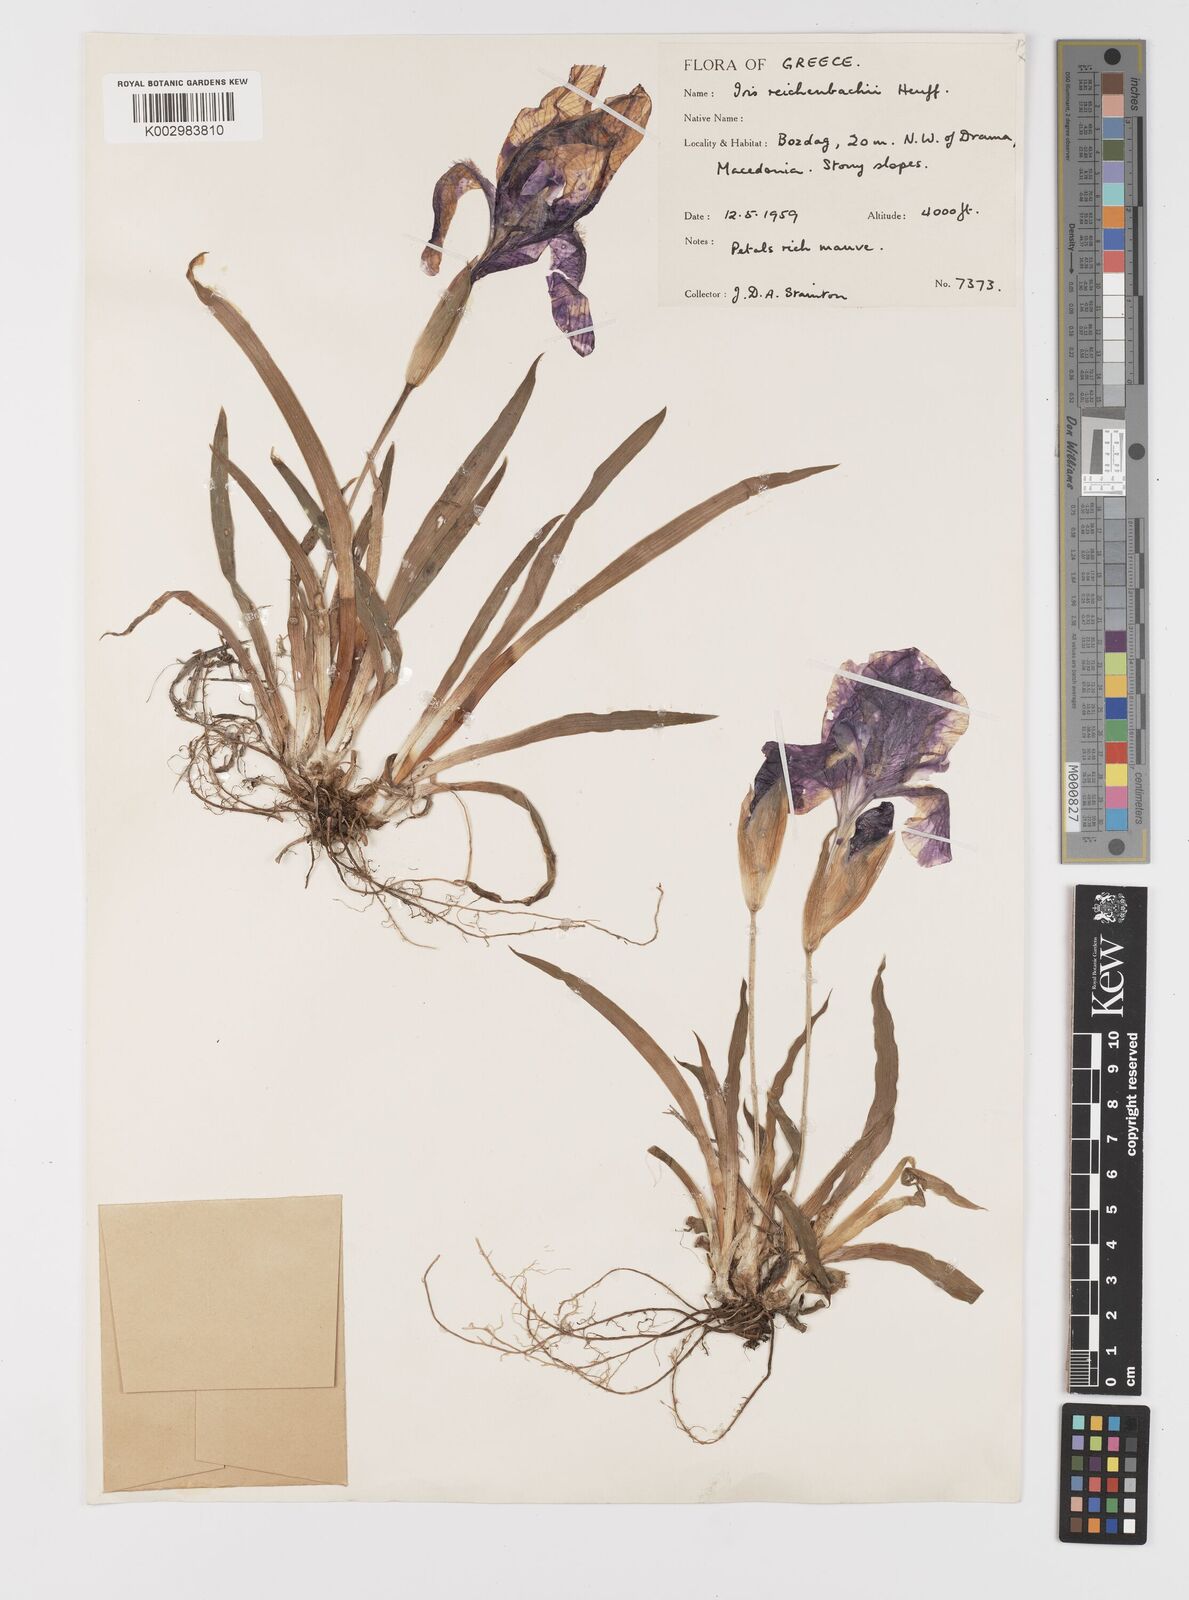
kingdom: Plantae
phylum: Tracheophyta
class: Liliopsida
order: Asparagales
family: Iridaceae
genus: Iris
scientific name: Iris reichenbachii
